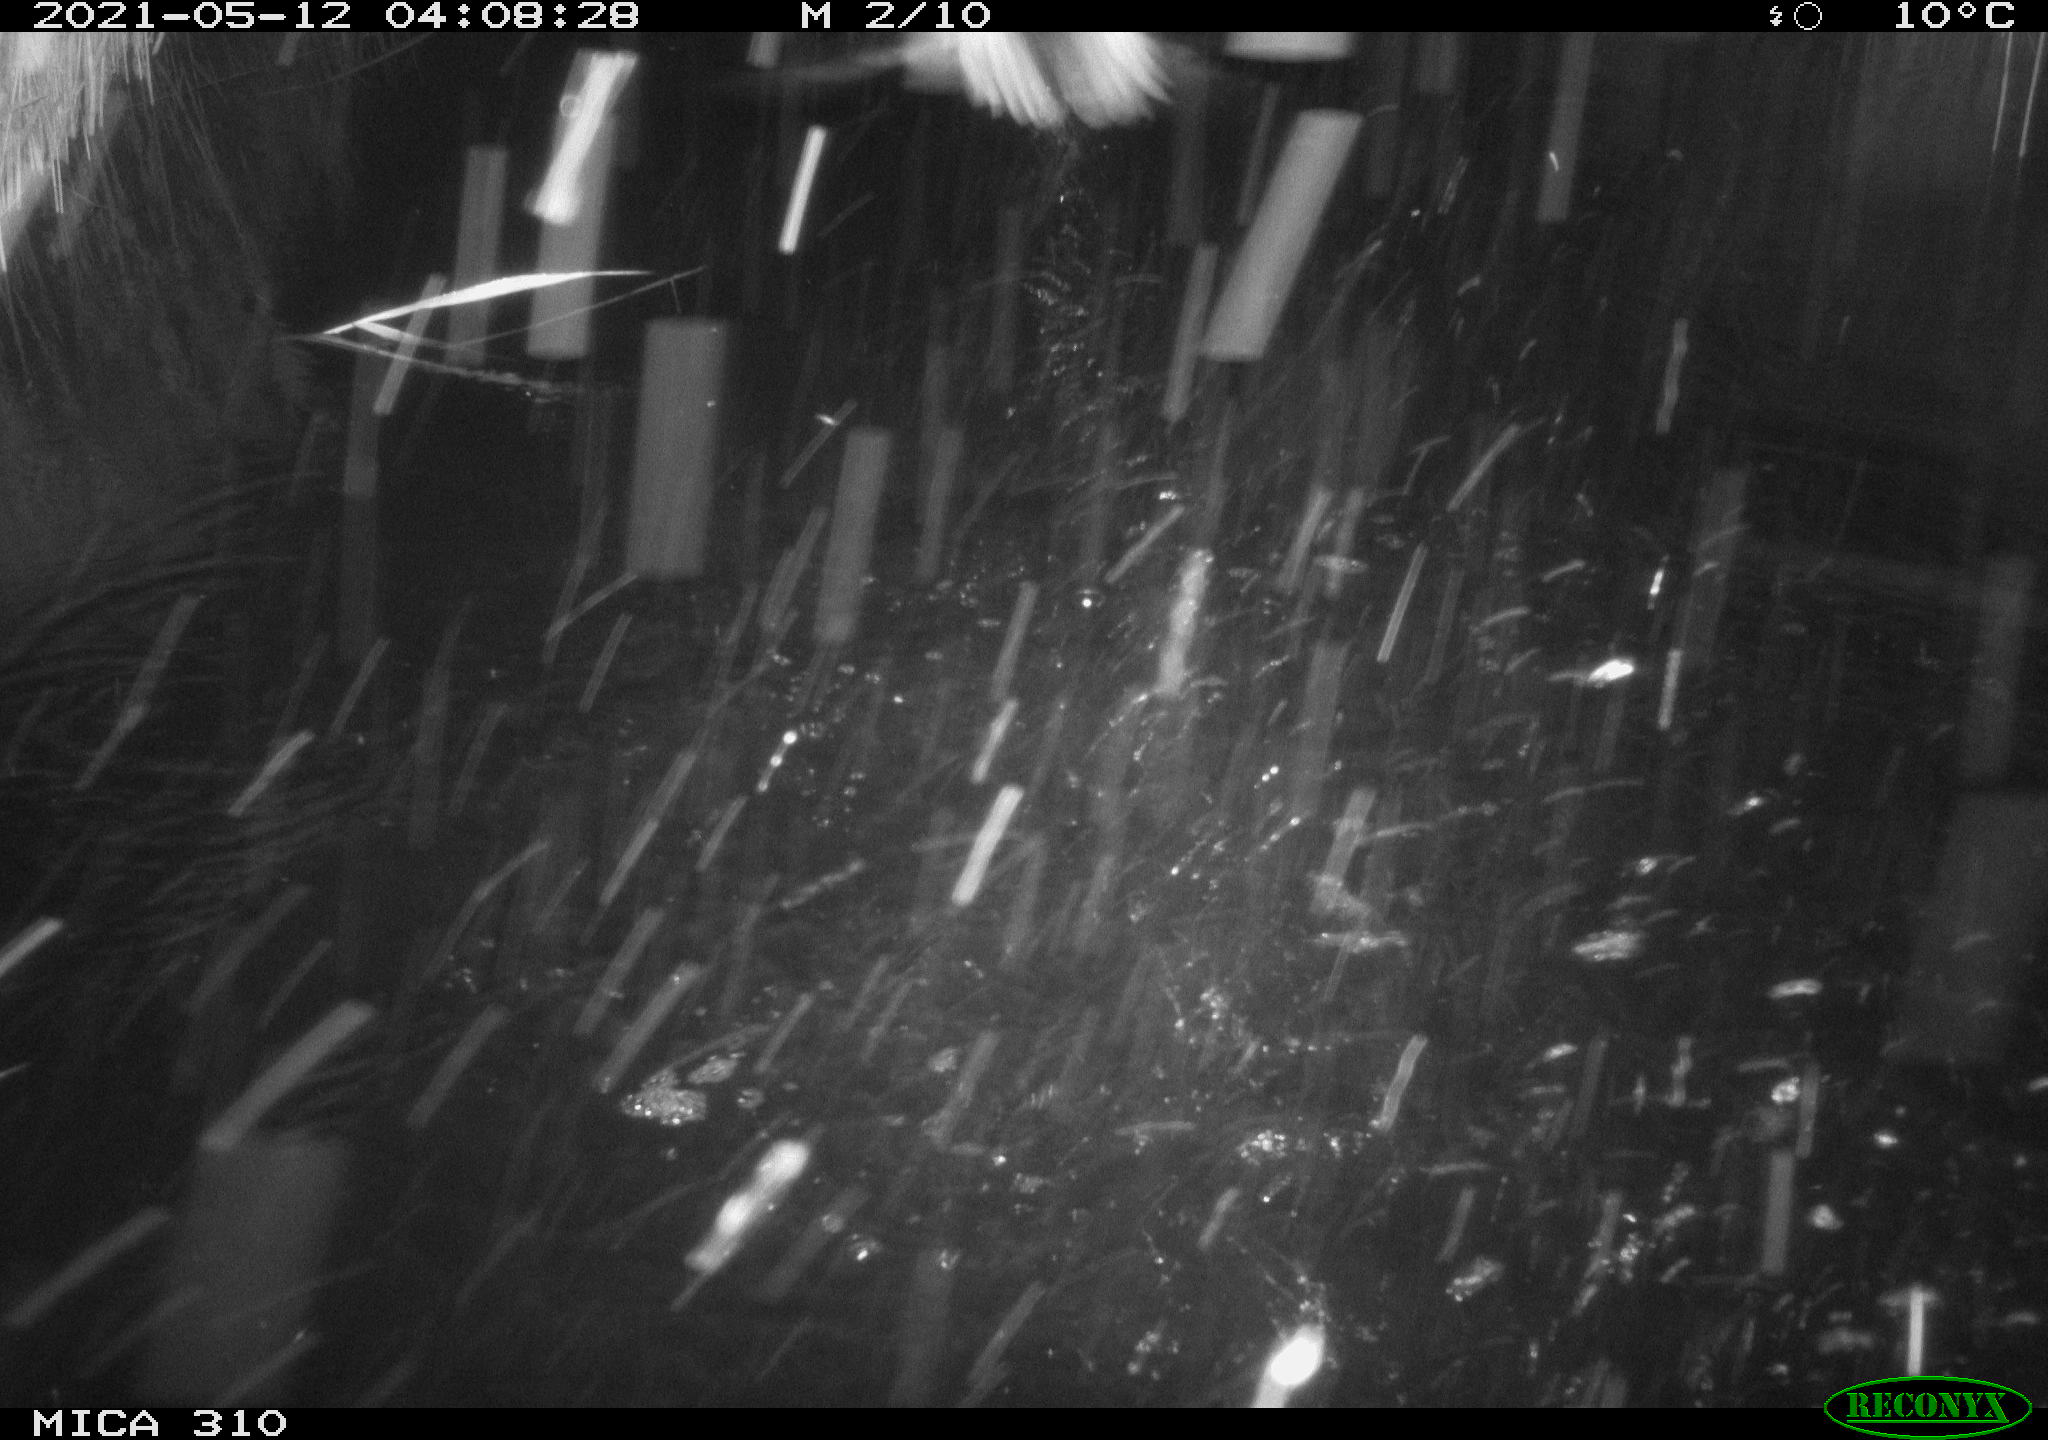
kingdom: Animalia
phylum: Chordata
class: Aves
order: Anseriformes
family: Anatidae
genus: Anas
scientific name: Anas platyrhynchos
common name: Mallard
